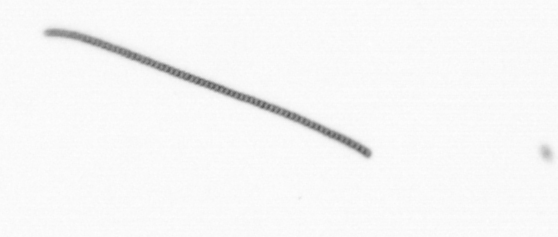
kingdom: Chromista
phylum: Ochrophyta
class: Bacillariophyceae
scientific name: Bacillariophyceae
